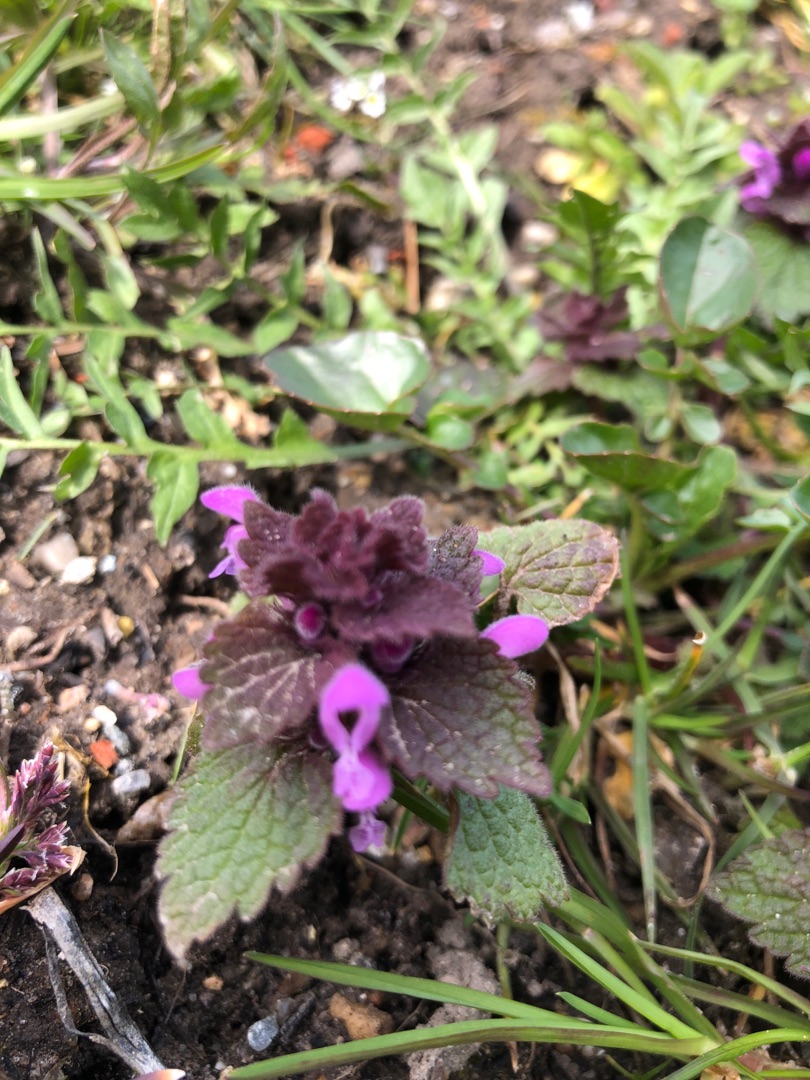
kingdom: Plantae
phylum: Tracheophyta
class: Magnoliopsida
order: Lamiales
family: Lamiaceae
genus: Lamium
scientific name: Lamium purpureum
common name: Rød tvetand
